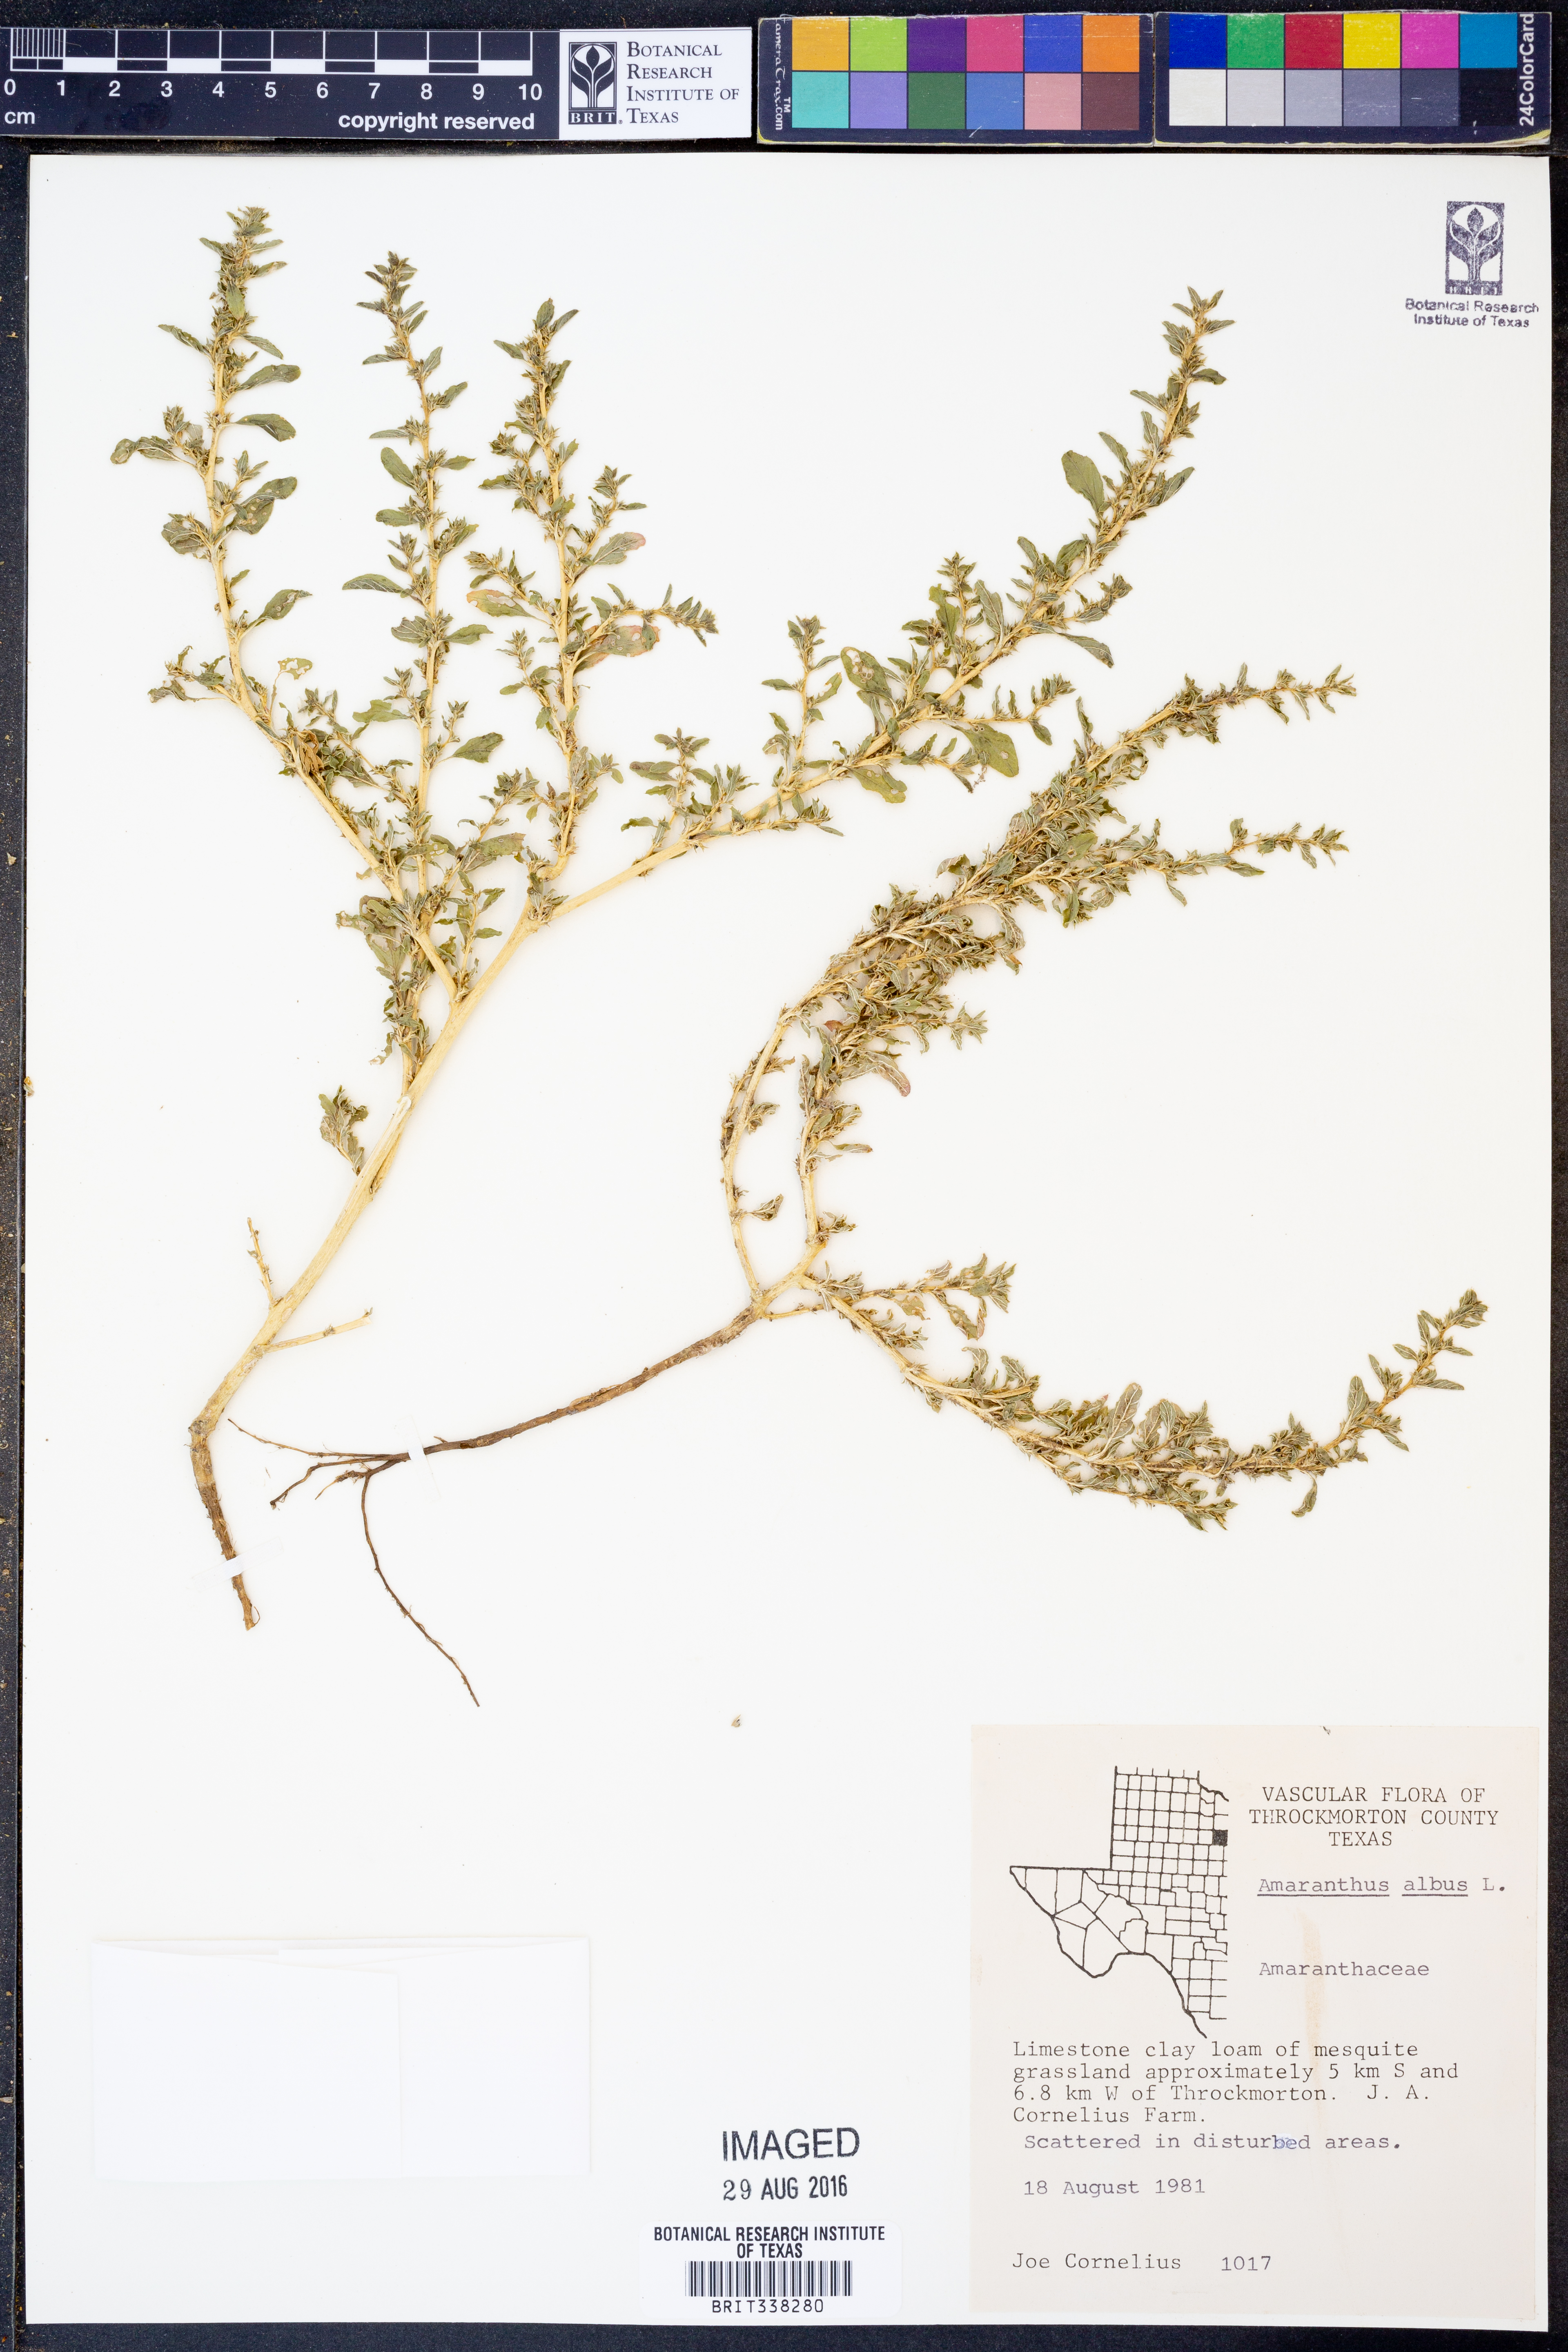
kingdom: Plantae
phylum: Tracheophyta
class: Magnoliopsida
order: Caryophyllales
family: Amaranthaceae
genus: Amaranthus
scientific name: Amaranthus albus
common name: White pigweed
